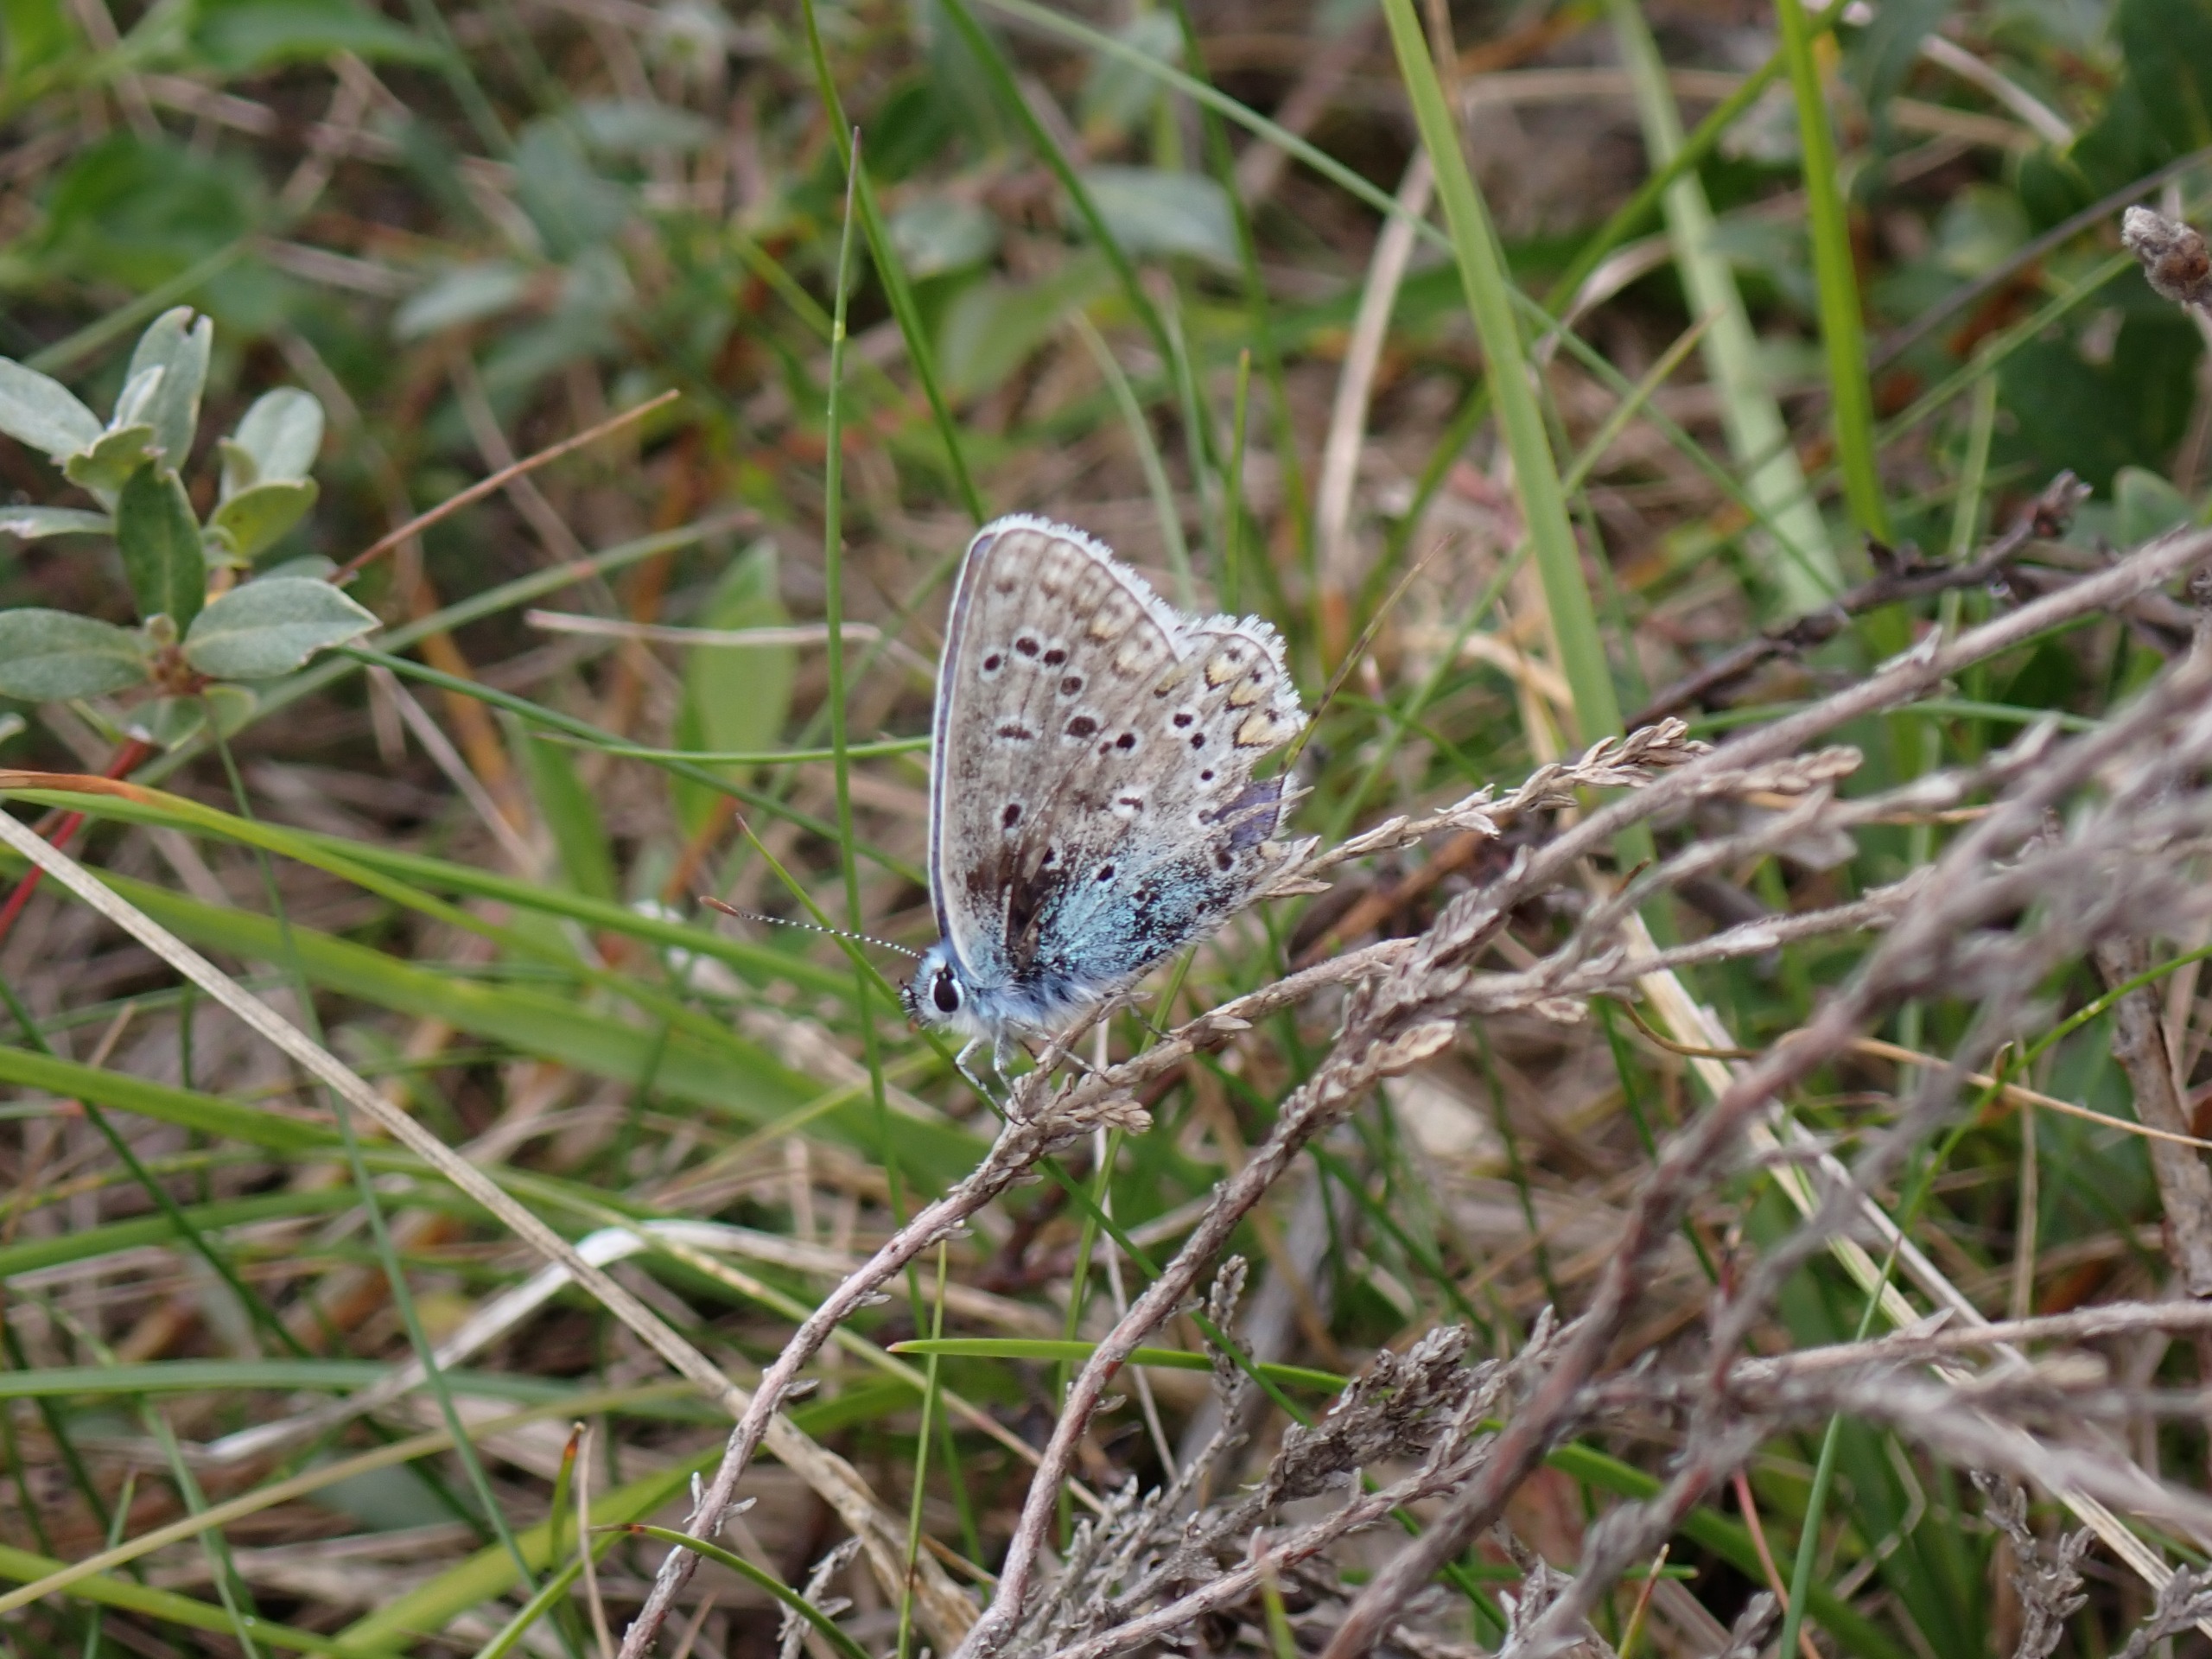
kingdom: Animalia
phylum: Arthropoda
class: Insecta
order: Lepidoptera
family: Lycaenidae
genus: Polyommatus
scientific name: Polyommatus icarus
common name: Almindelig blåfugl
